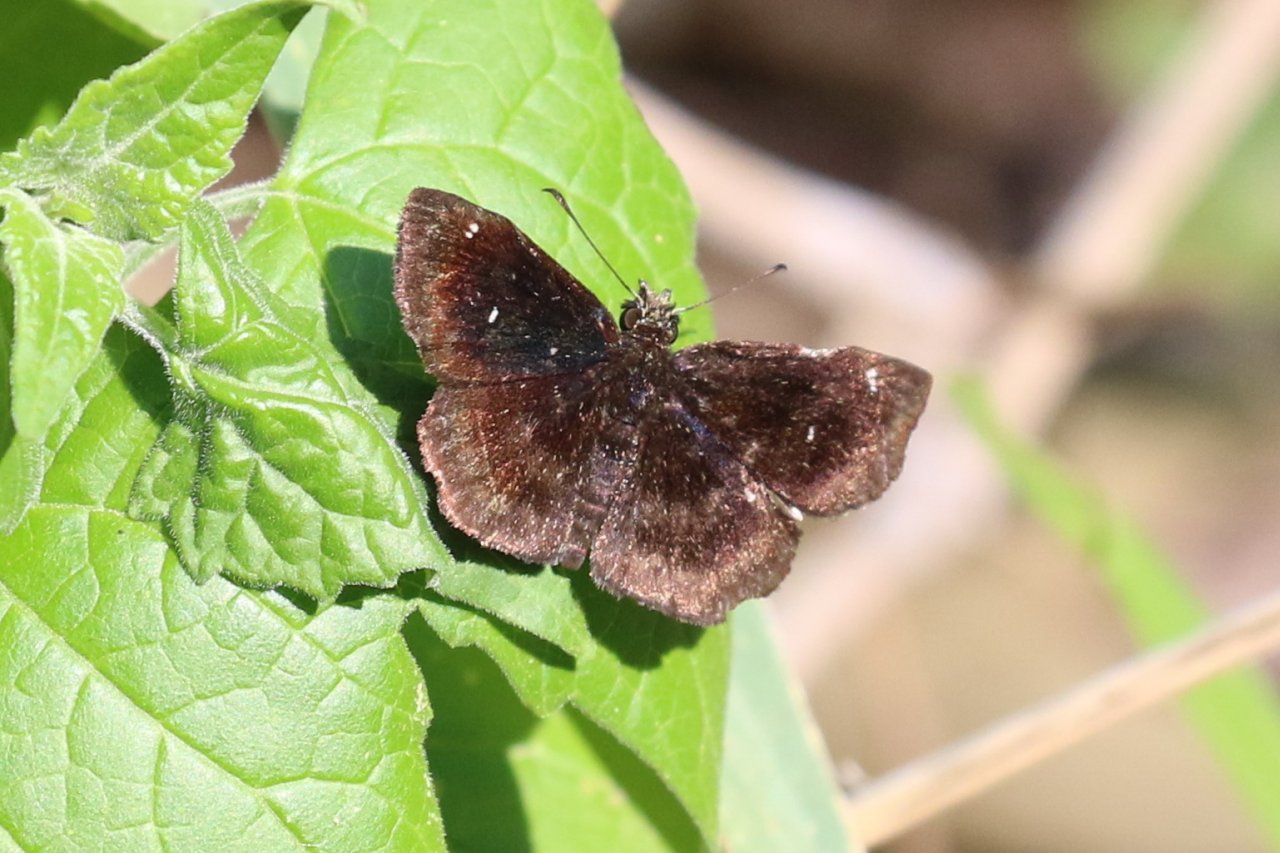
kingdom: Animalia
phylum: Arthropoda
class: Insecta
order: Lepidoptera
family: Hesperiidae
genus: Staphylus
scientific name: Staphylus mazans
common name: Mazans Scallopwing
